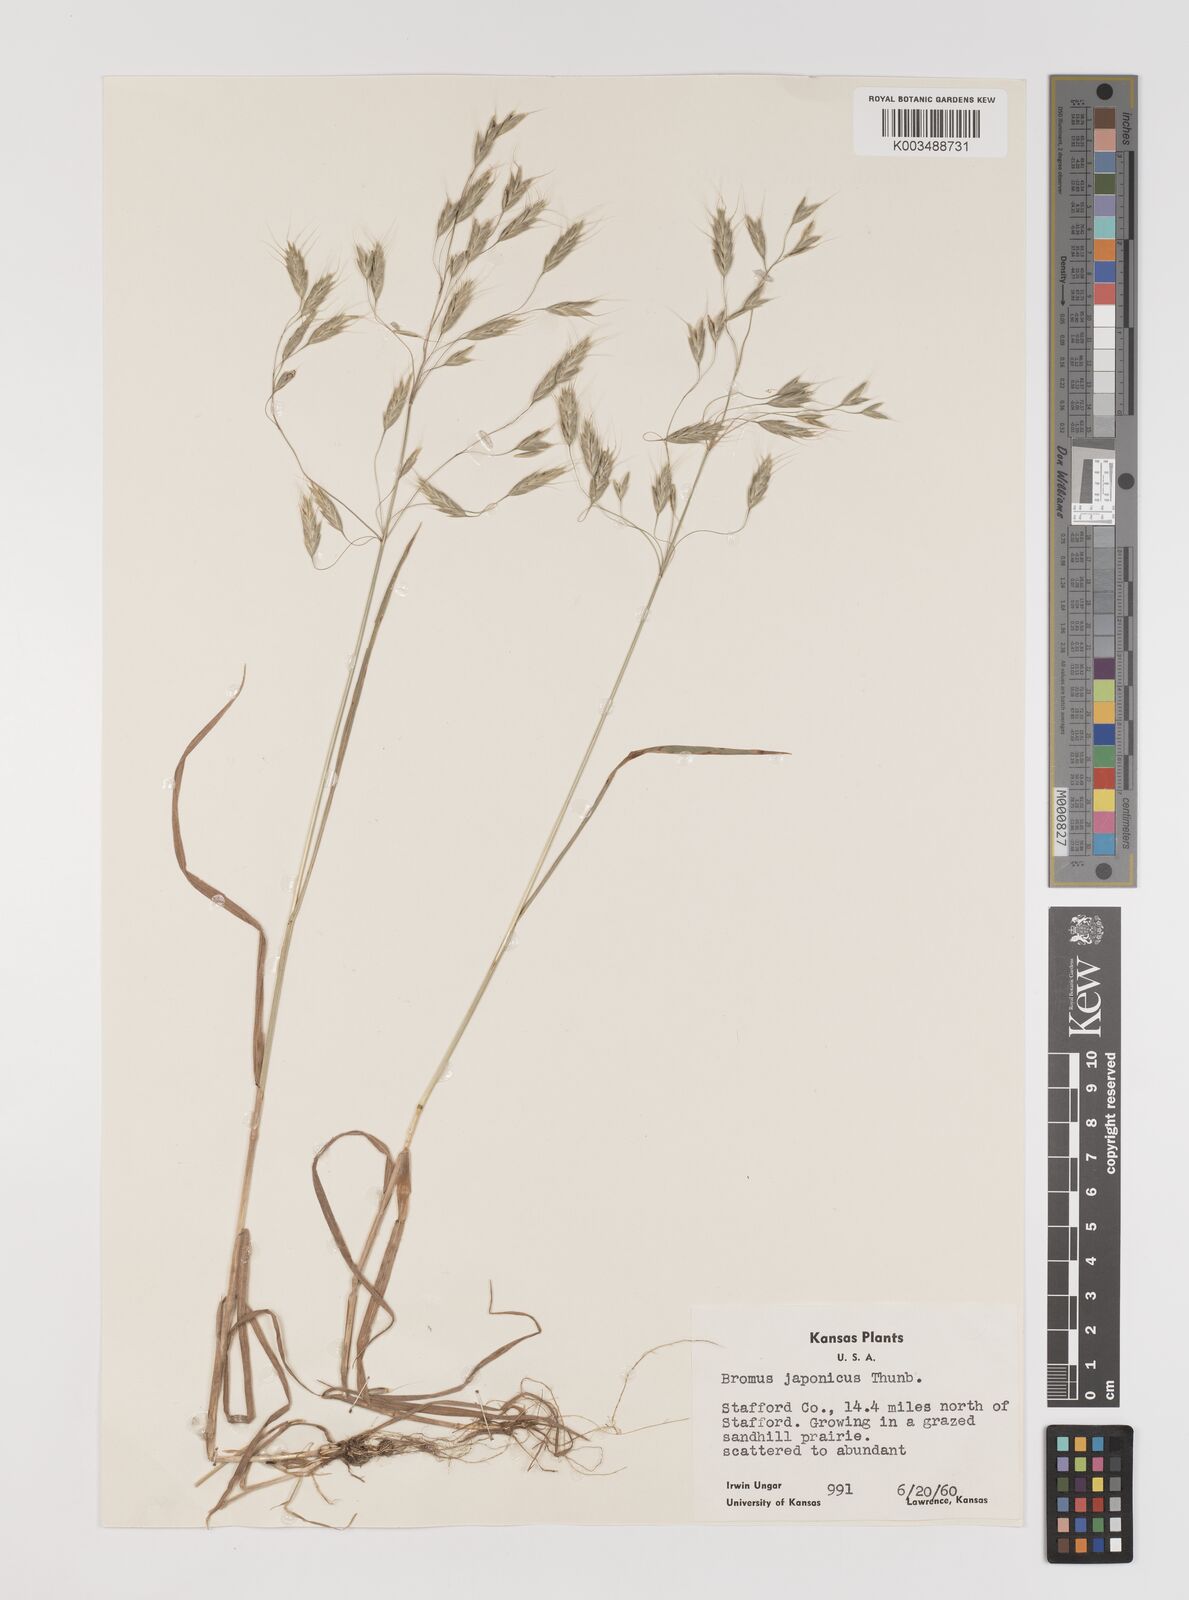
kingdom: Plantae
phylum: Tracheophyta
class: Liliopsida
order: Poales
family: Poaceae
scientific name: Poaceae
